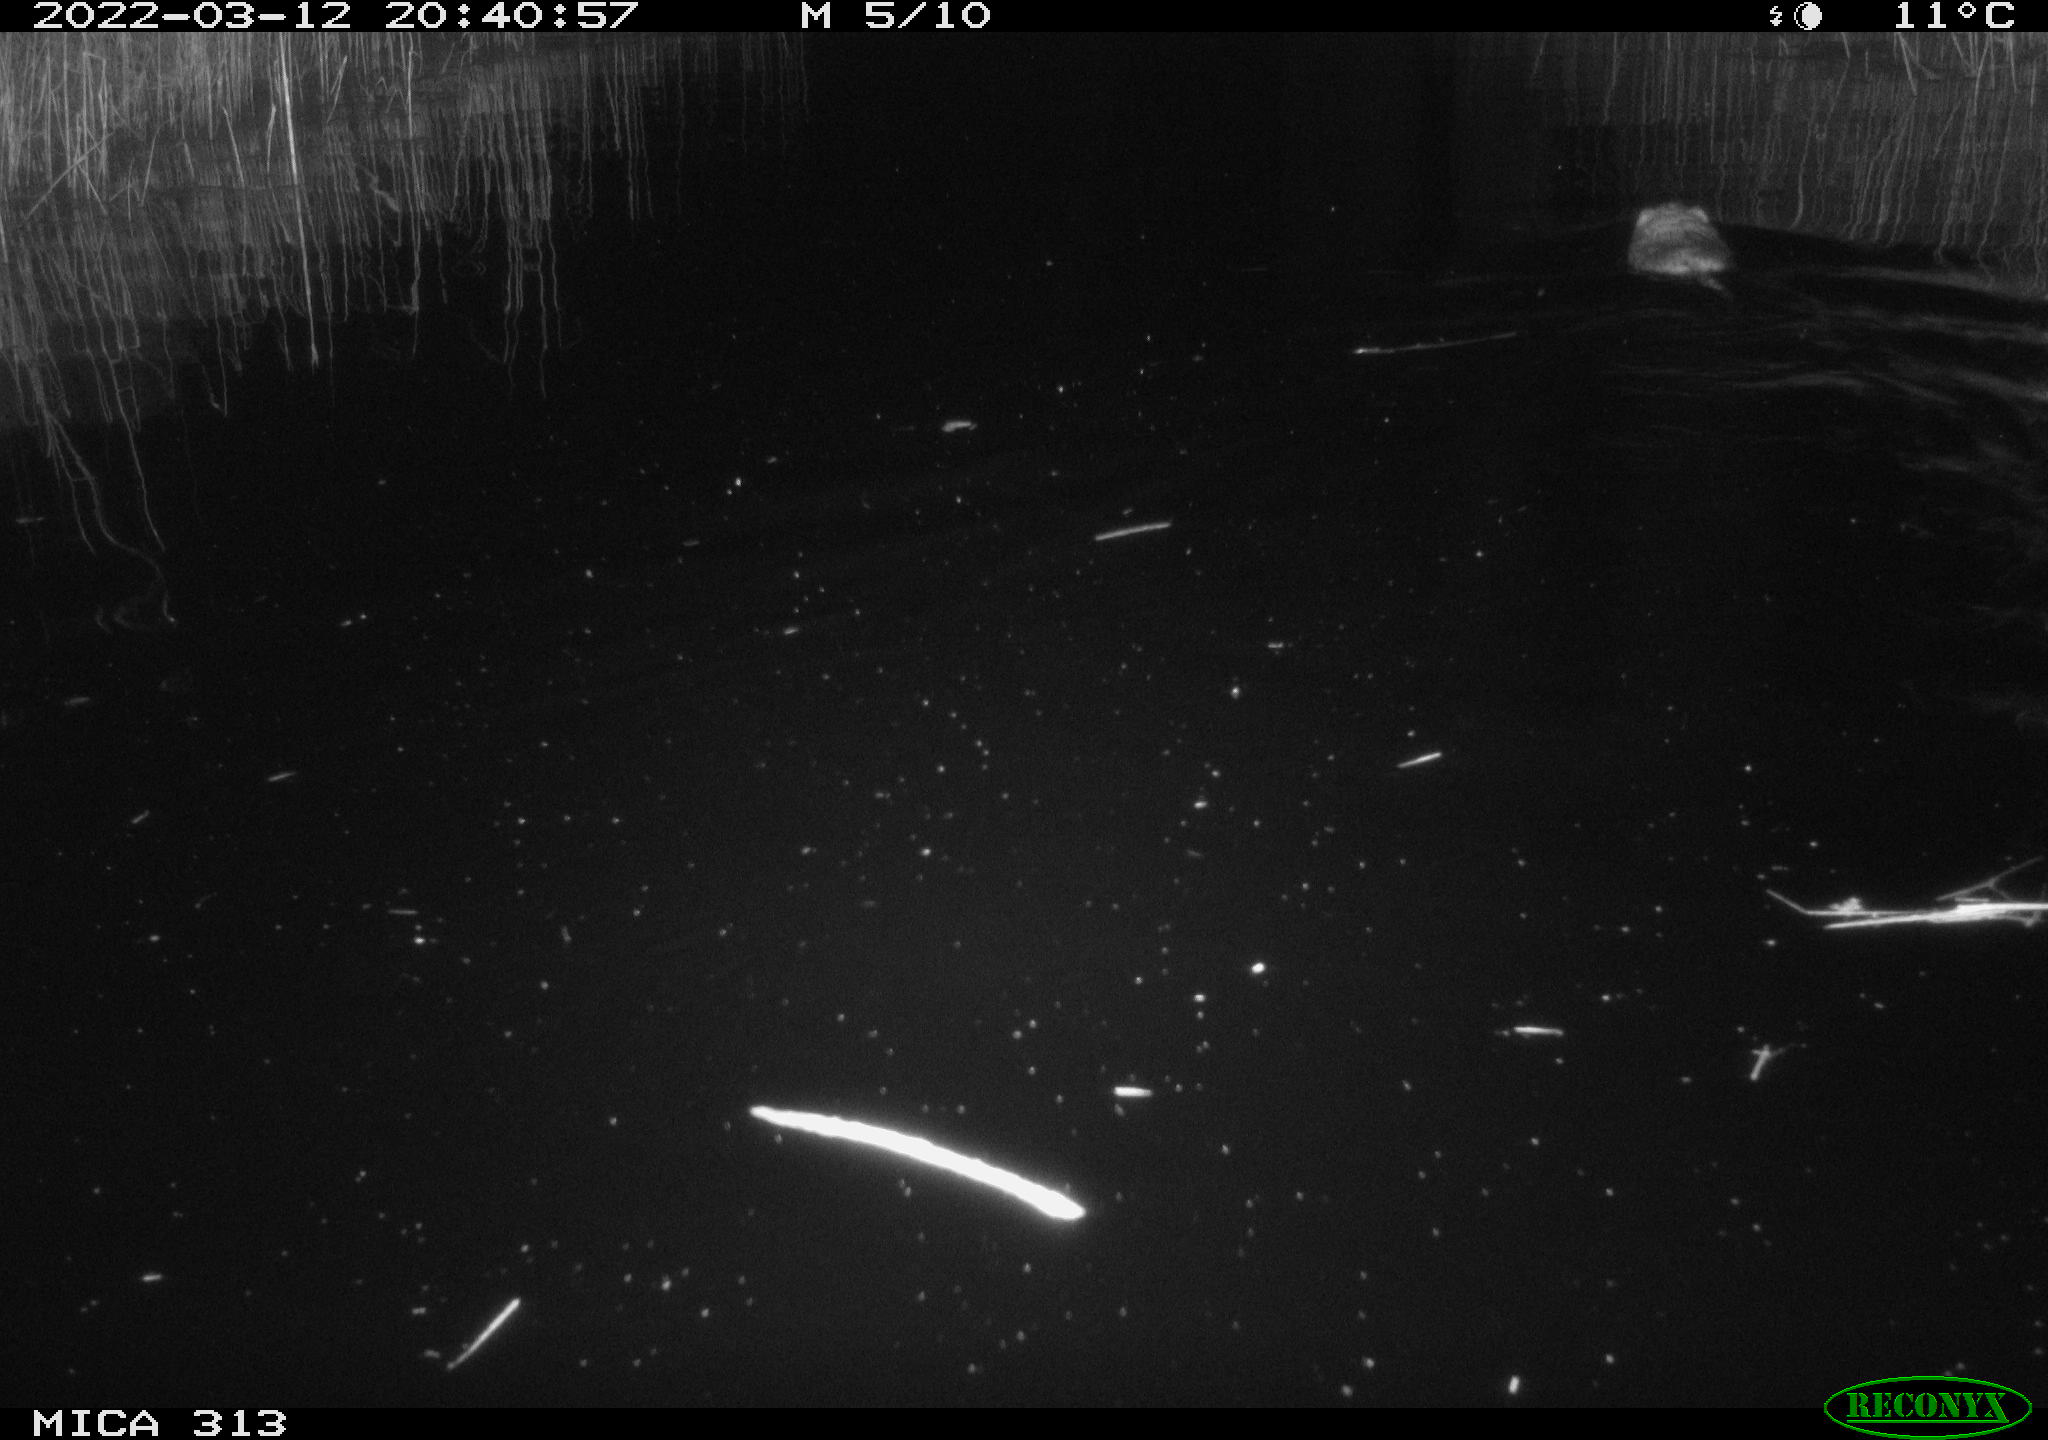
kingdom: Animalia
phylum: Chordata
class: Mammalia
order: Rodentia
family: Cricetidae
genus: Ondatra
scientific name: Ondatra zibethicus
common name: Muskrat
